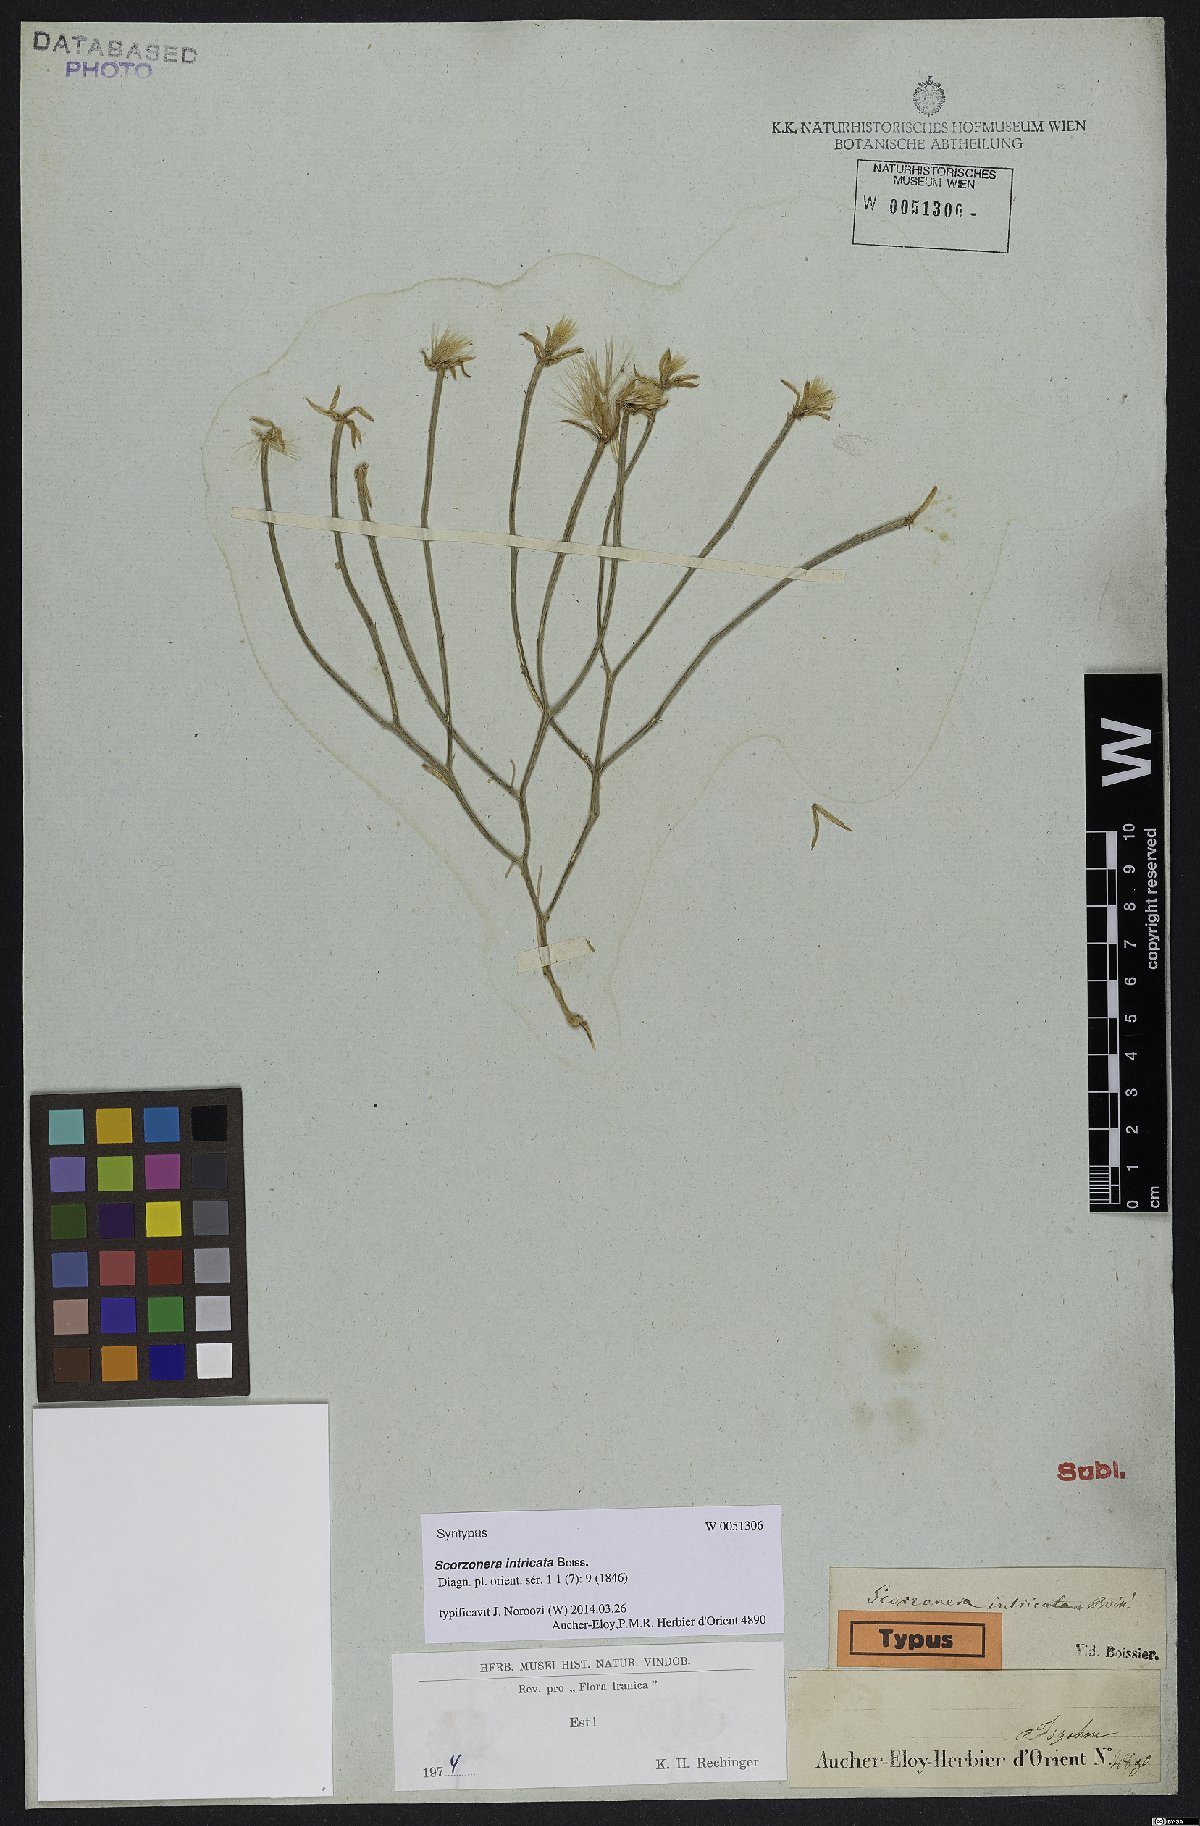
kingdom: Plantae
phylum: Tracheophyta
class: Magnoliopsida
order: Asterales
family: Asteraceae
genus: Ramaliella
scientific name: Ramaliella intricata
